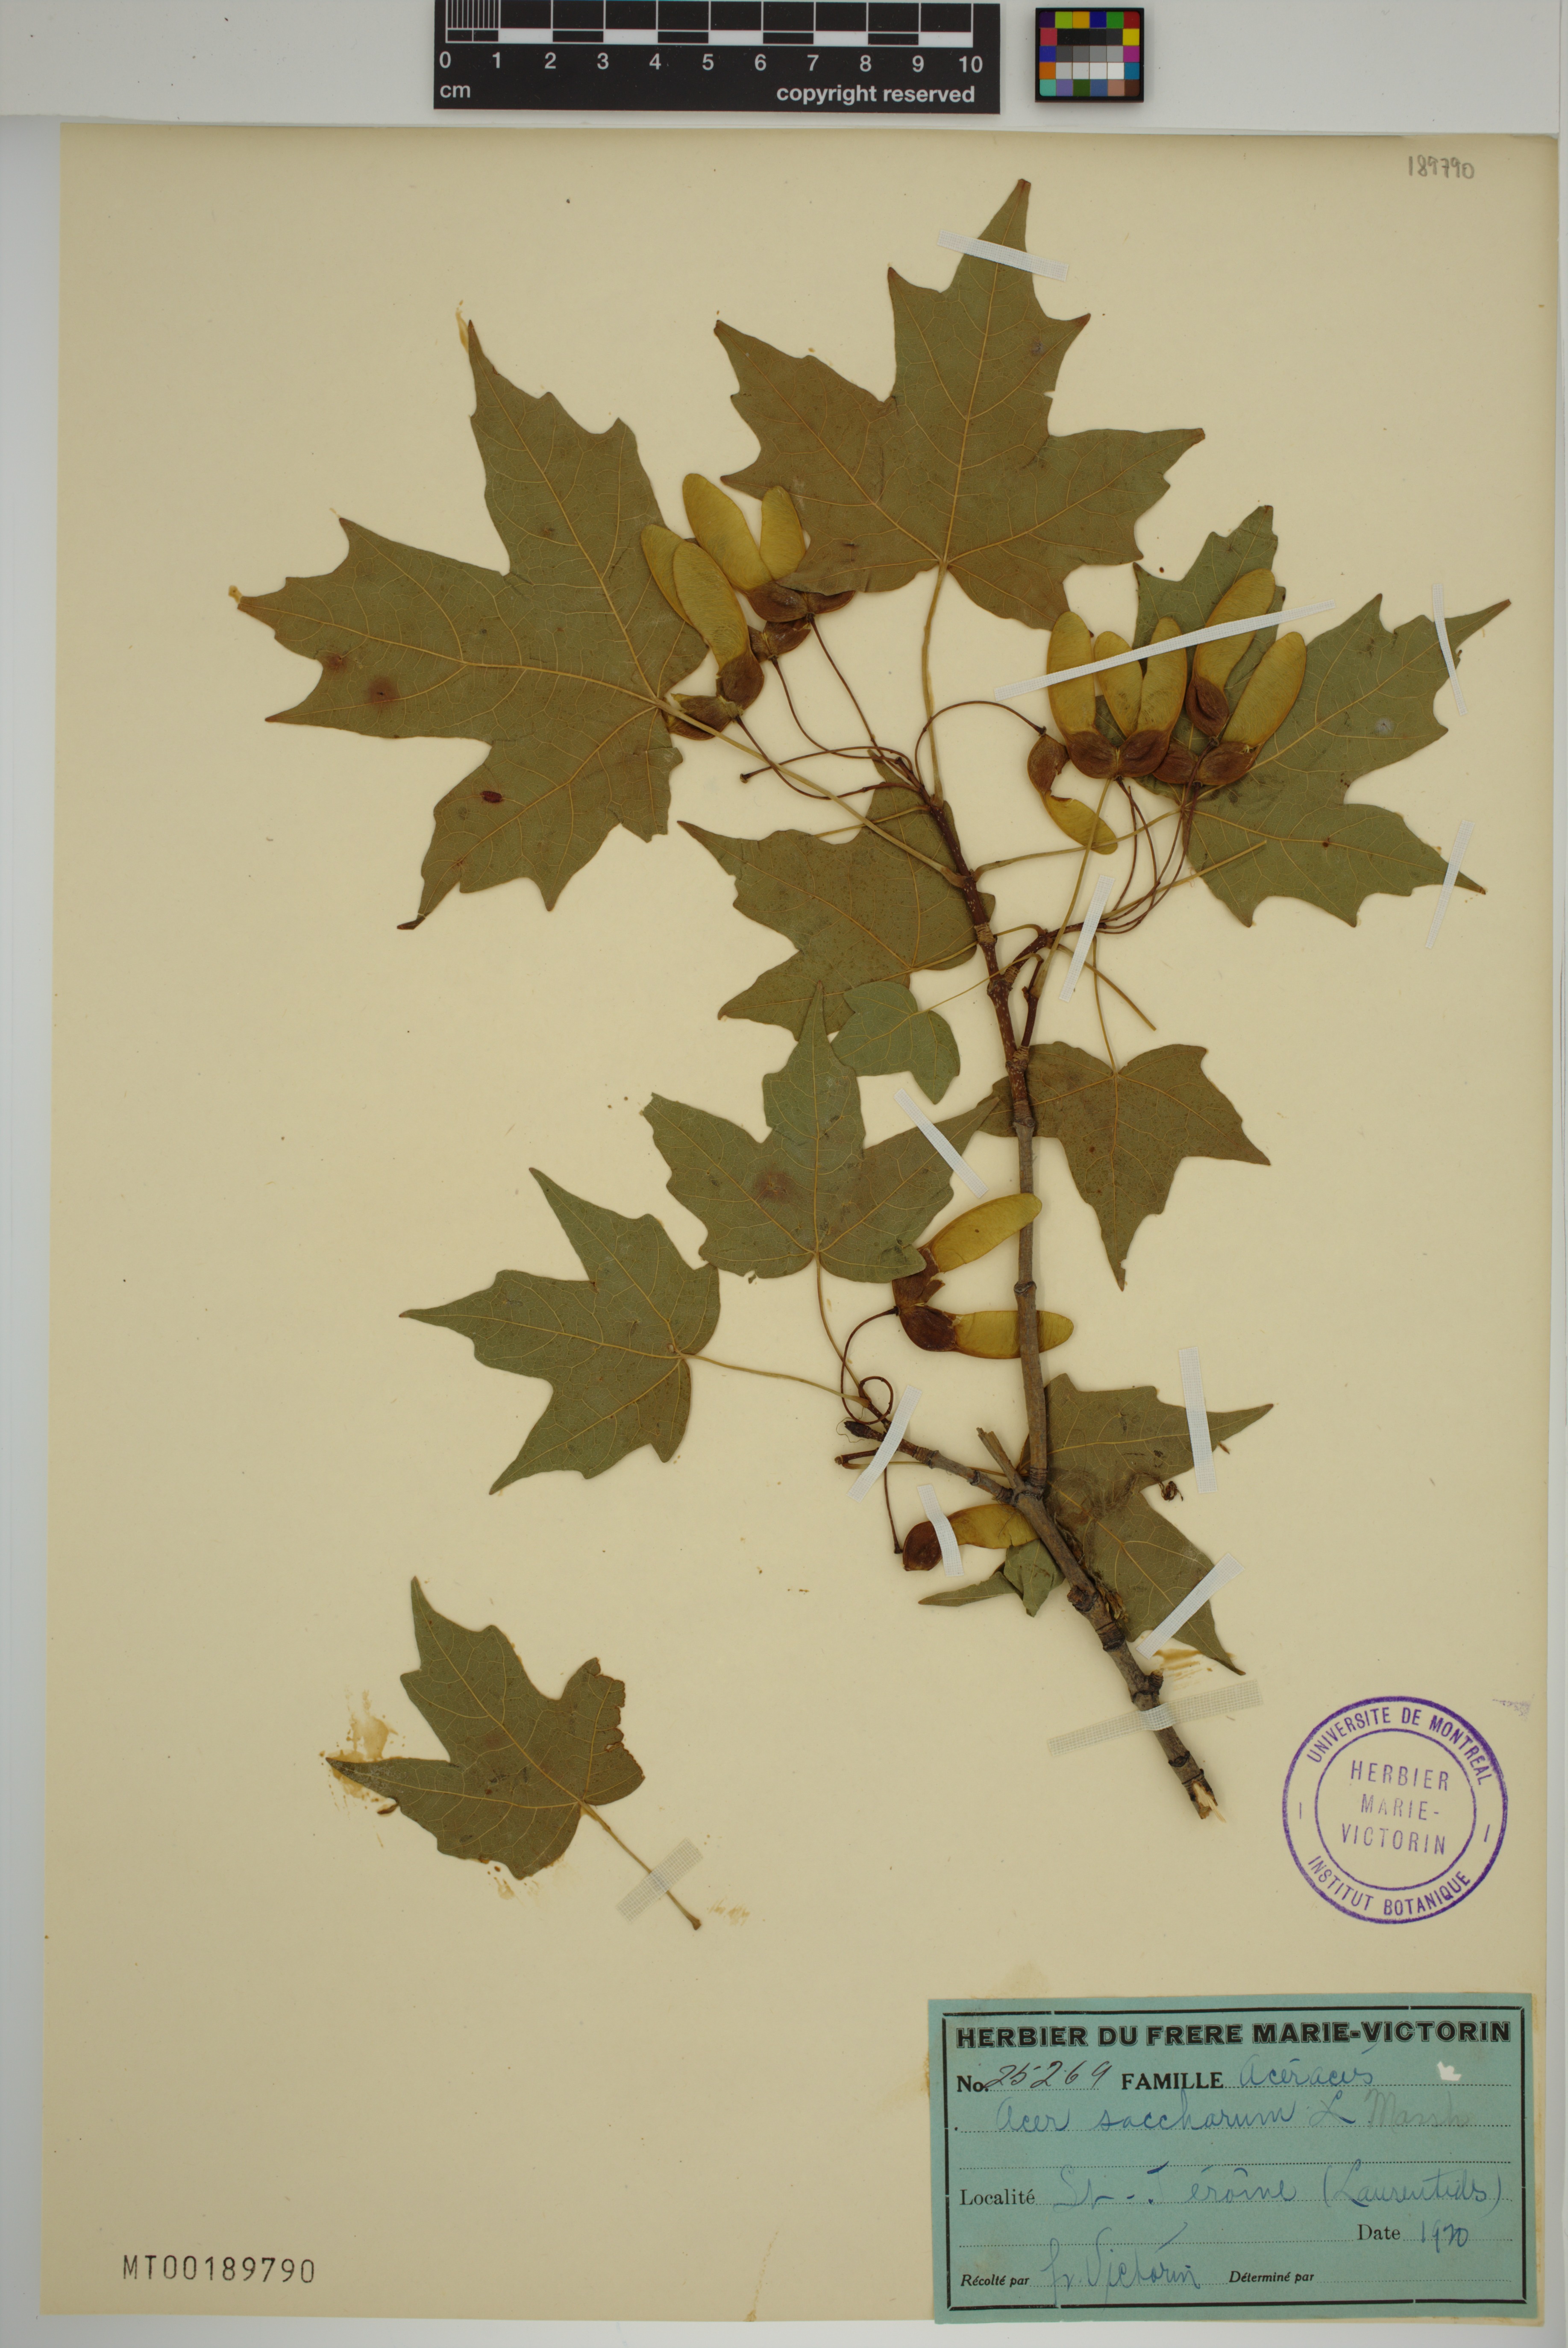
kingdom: Plantae
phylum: Tracheophyta
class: Magnoliopsida
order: Sapindales
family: Sapindaceae
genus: Acer
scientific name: Acer saccharum
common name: Sugar maple
